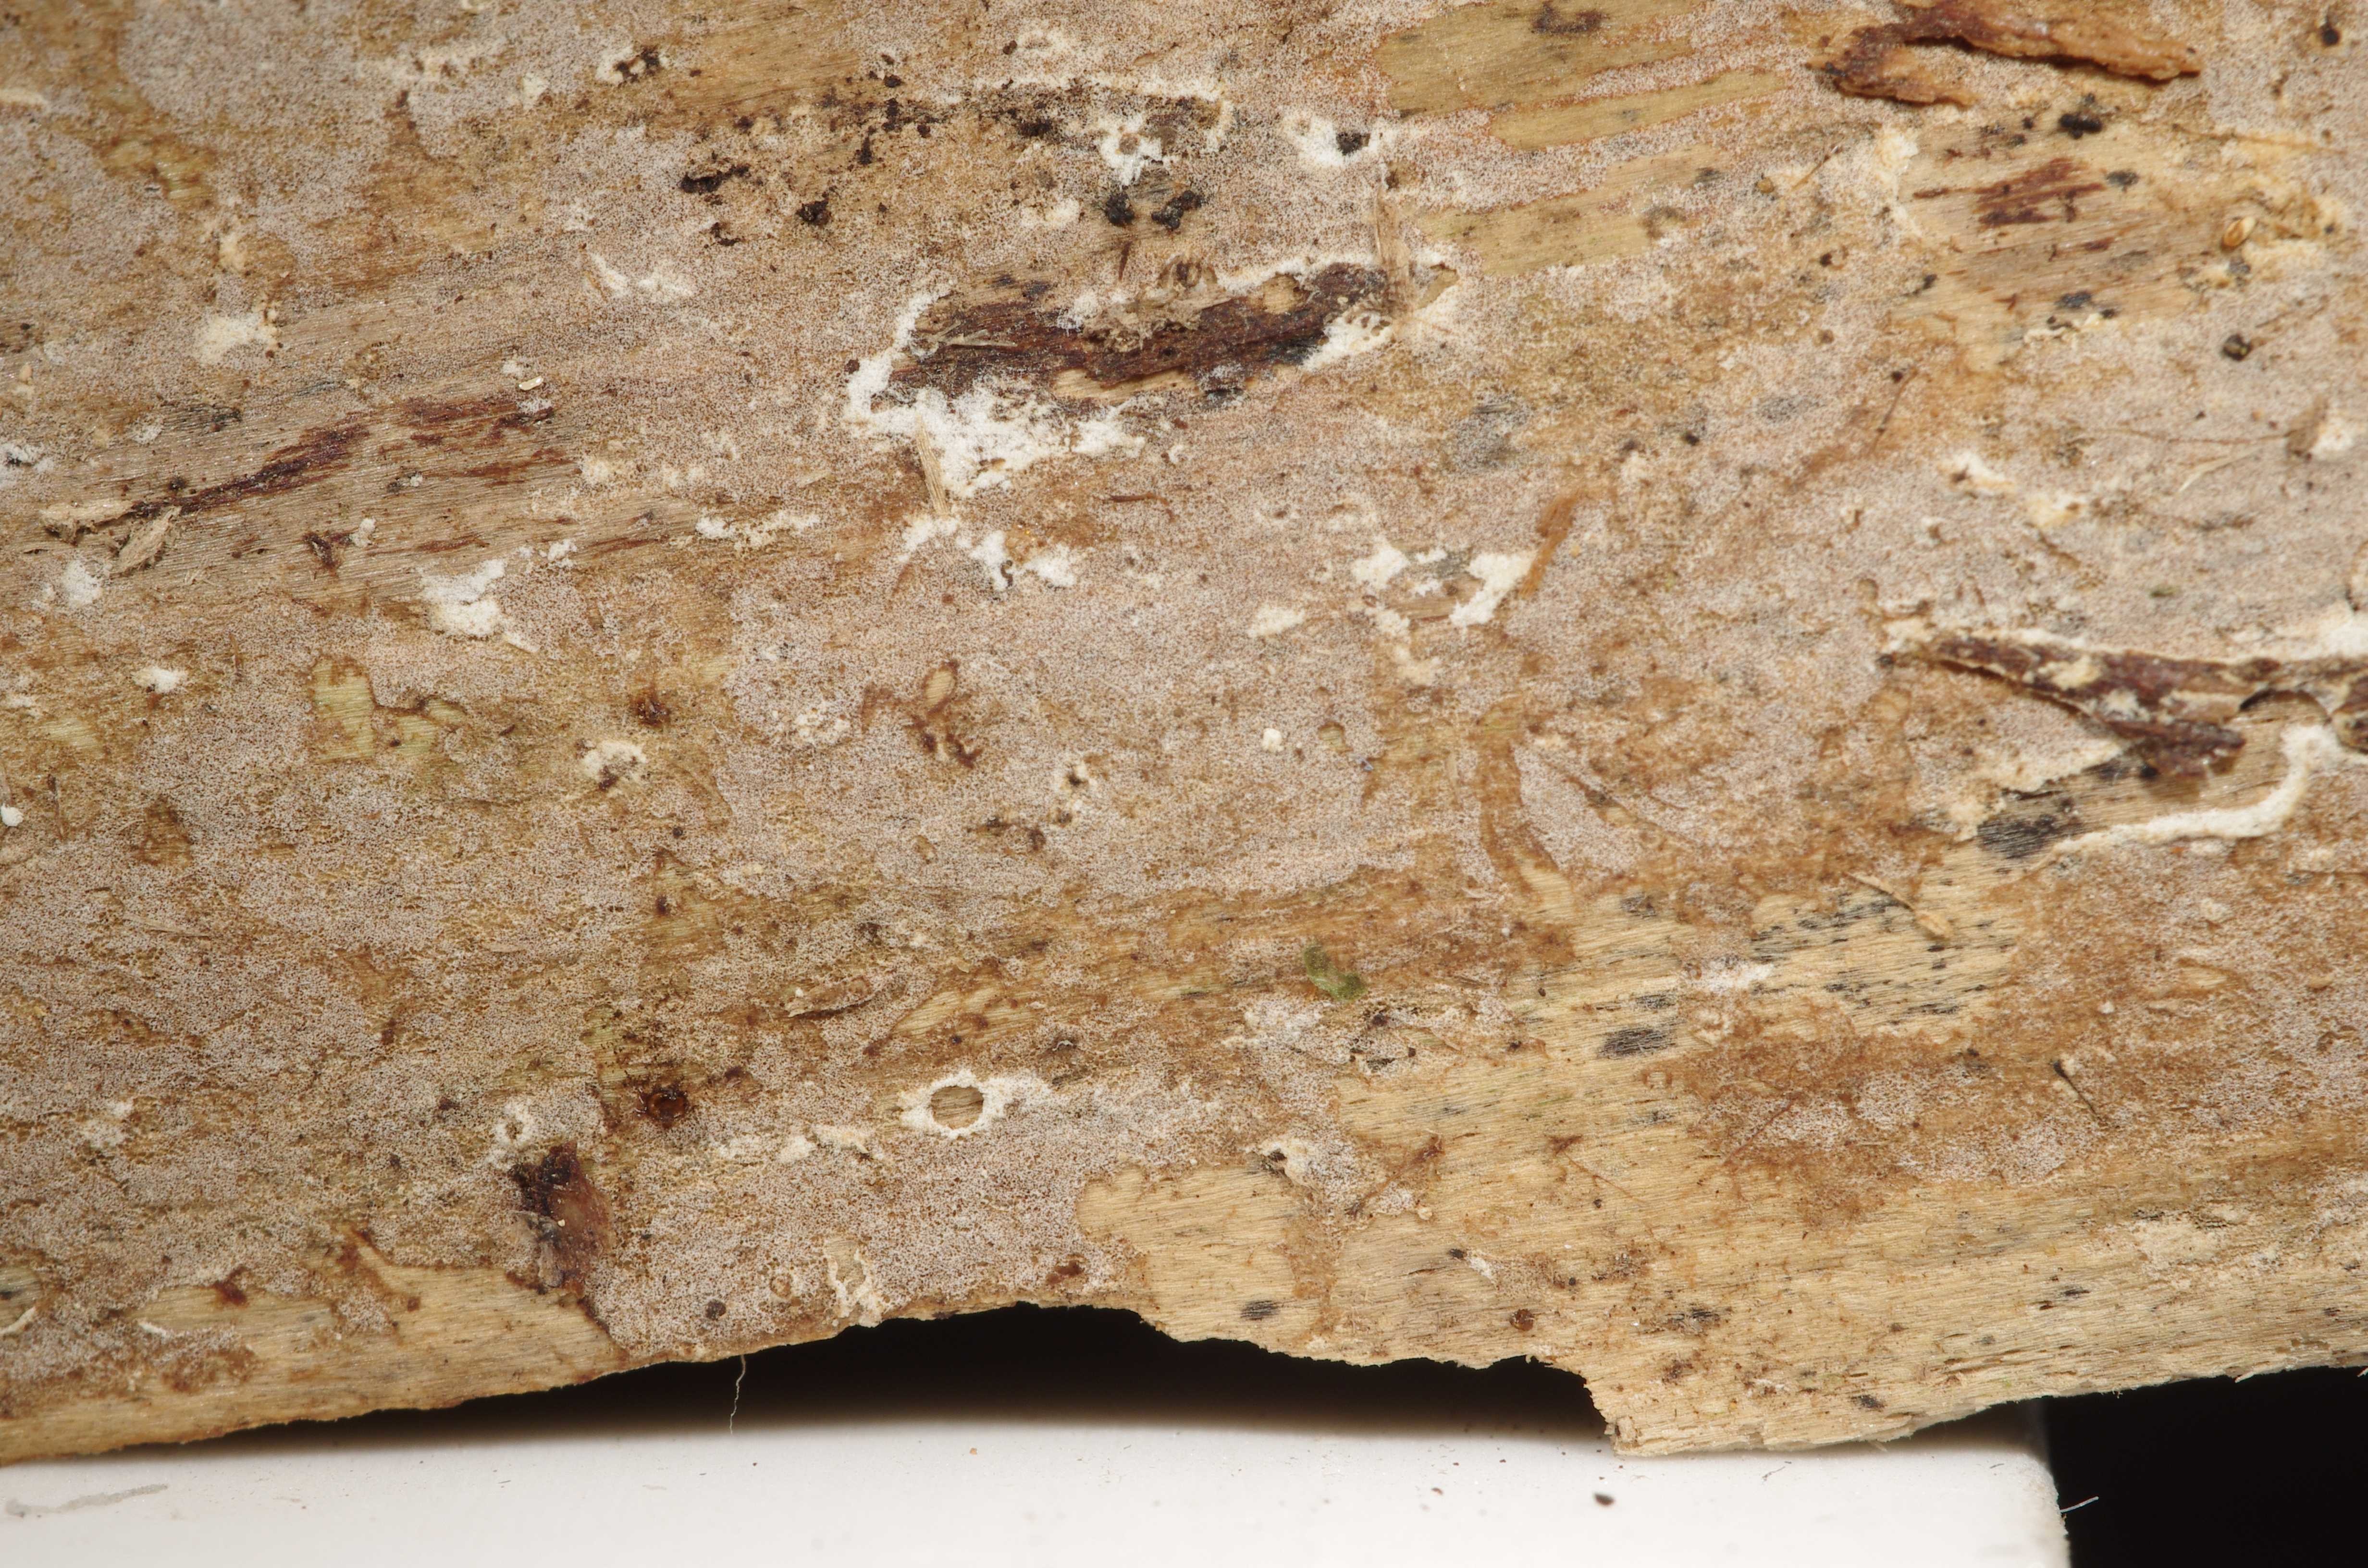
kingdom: Fungi
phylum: Basidiomycota
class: Agaricomycetes
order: Hymenochaetales
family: Rickenellaceae
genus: Peniophorella
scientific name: Peniophorella pallida
